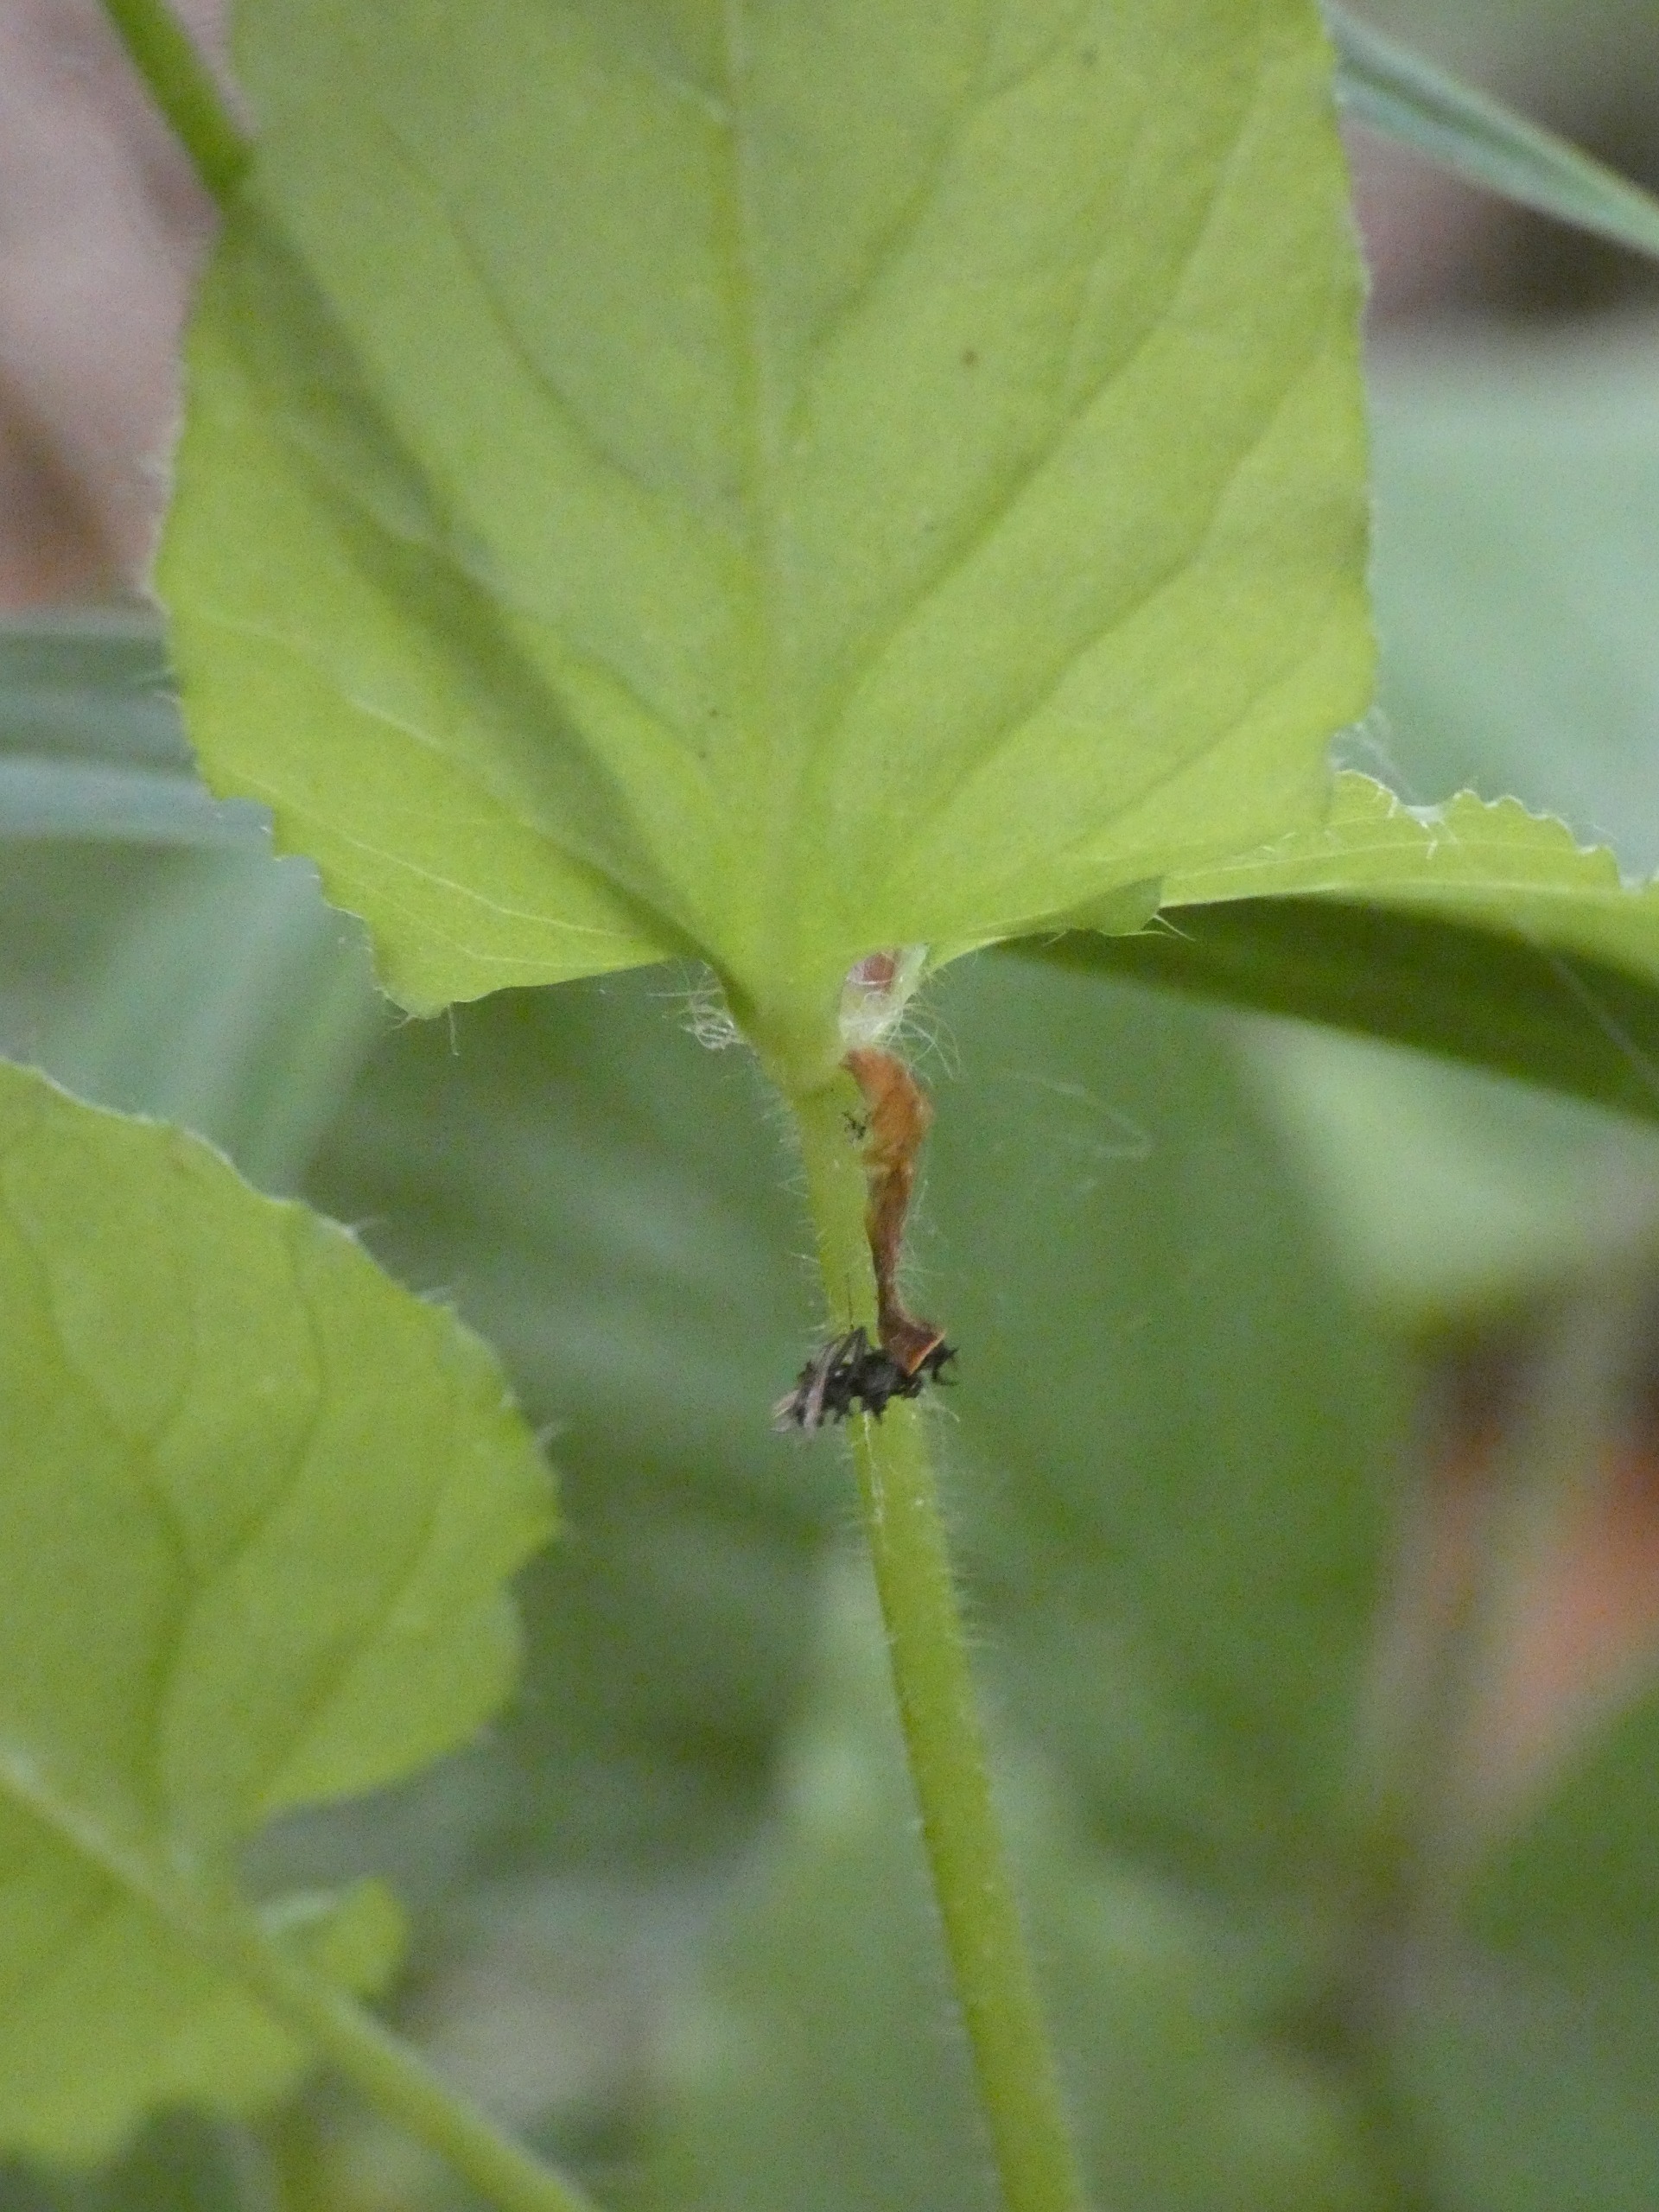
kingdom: Plantae
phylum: Tracheophyta
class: Magnoliopsida
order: Caryophyllales
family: Caryophyllaceae
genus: Stellaria
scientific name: Stellaria nemorum
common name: Lund-fladstjerne
